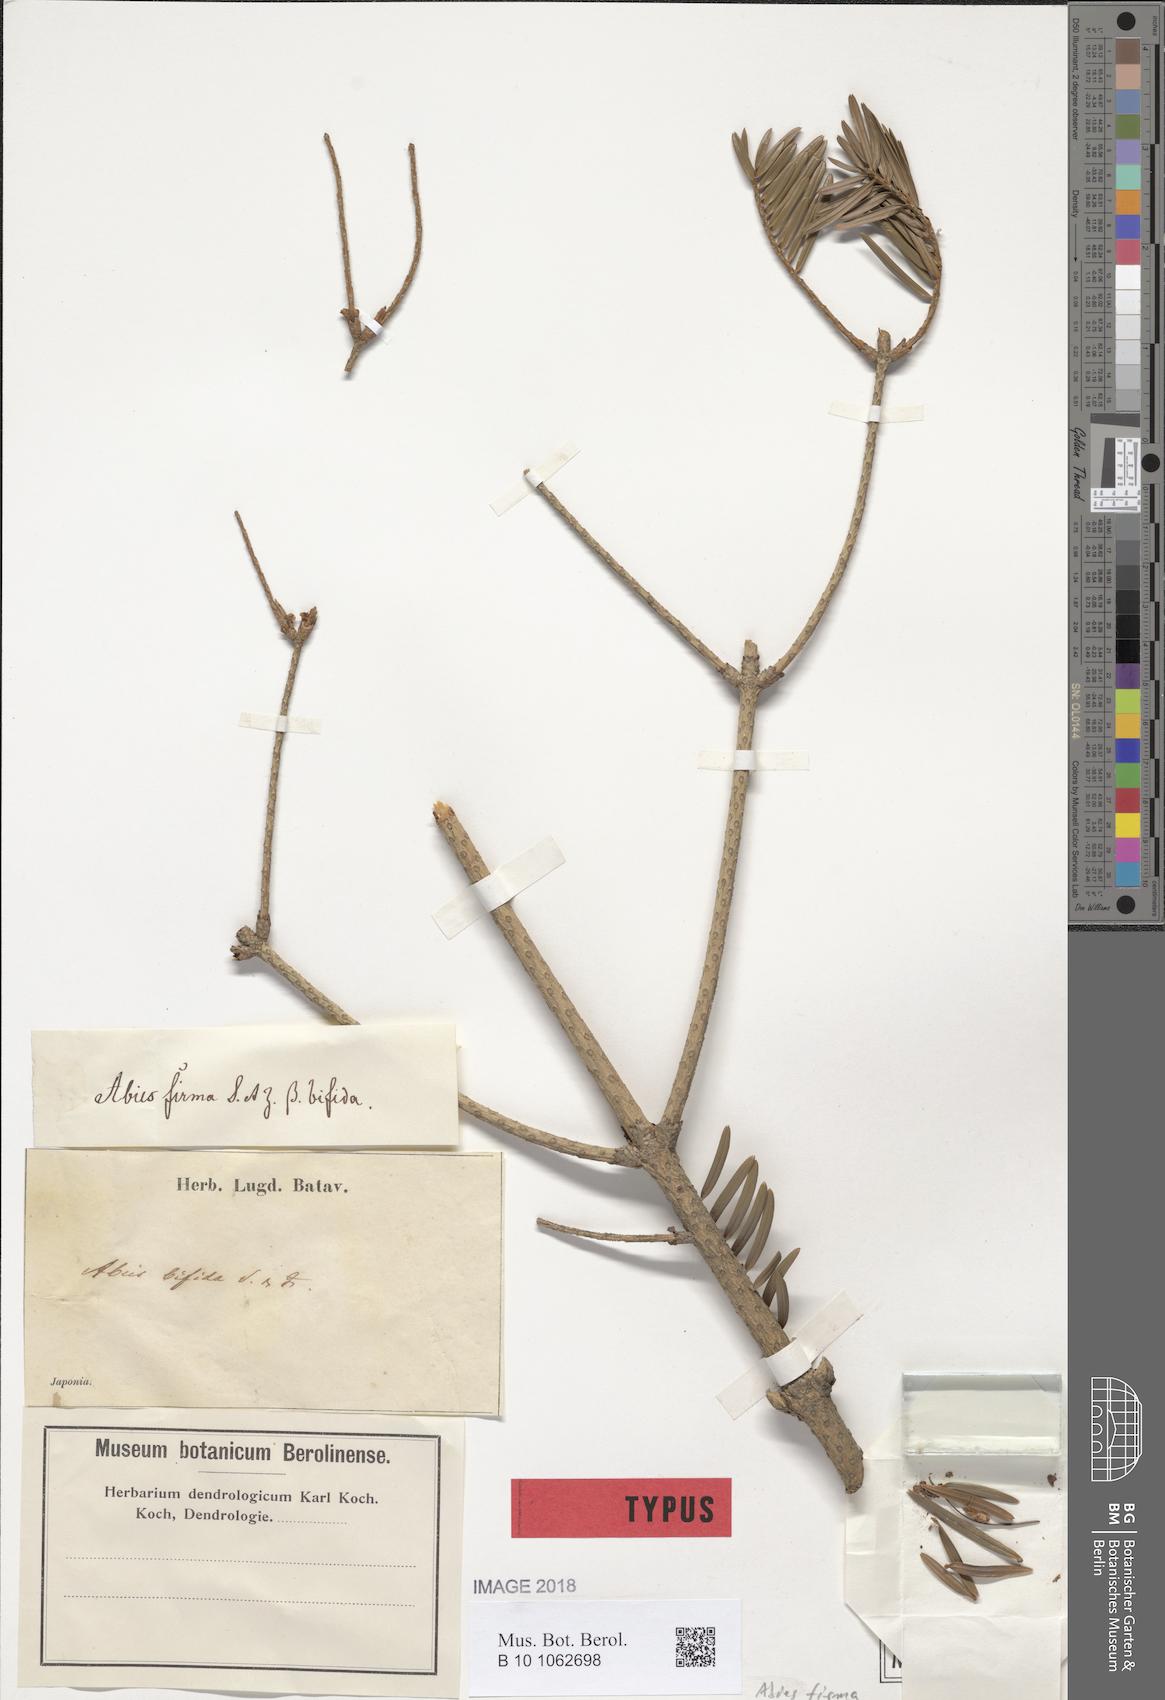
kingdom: Plantae
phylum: Tracheophyta
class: Pinopsida
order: Pinales
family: Pinaceae
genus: Abies
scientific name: Abies firma
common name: Momi fir
